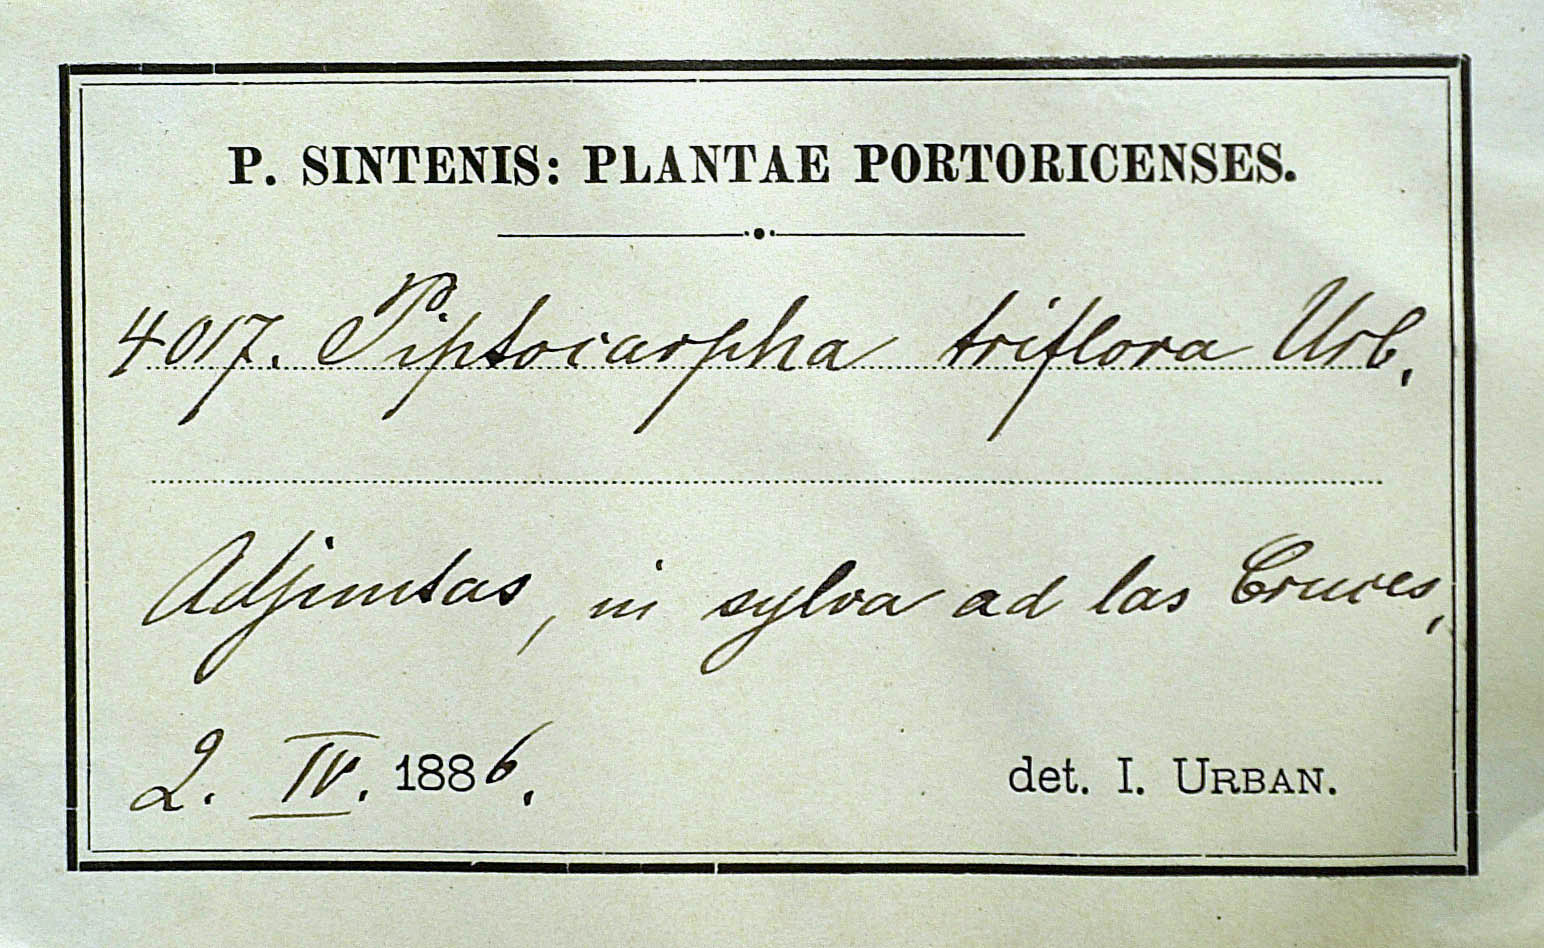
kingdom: Plantae
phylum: Tracheophyta
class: Magnoliopsida
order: Asterales
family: Asteraceae
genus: Piptocarpha
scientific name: Piptocarpha tetrantha
